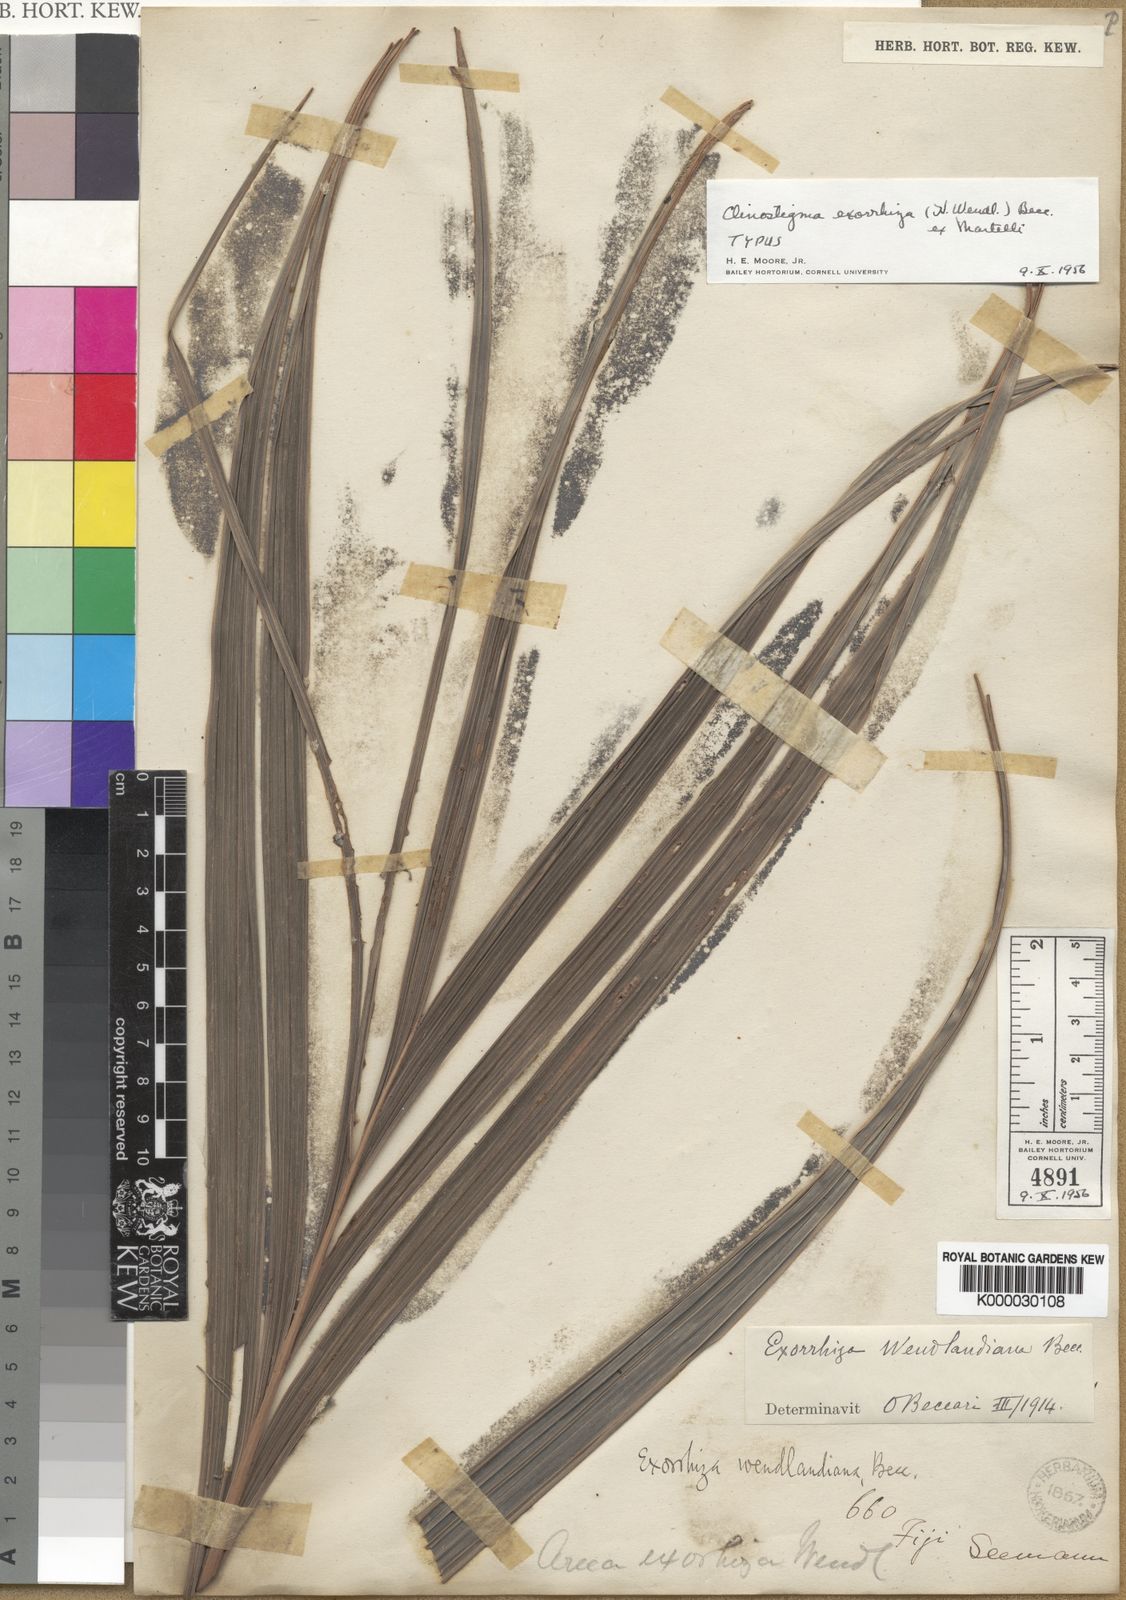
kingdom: Plantae
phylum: Tracheophyta
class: Liliopsida
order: Arecales
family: Arecaceae
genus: Clinostigma
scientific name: Clinostigma exorrhizum
